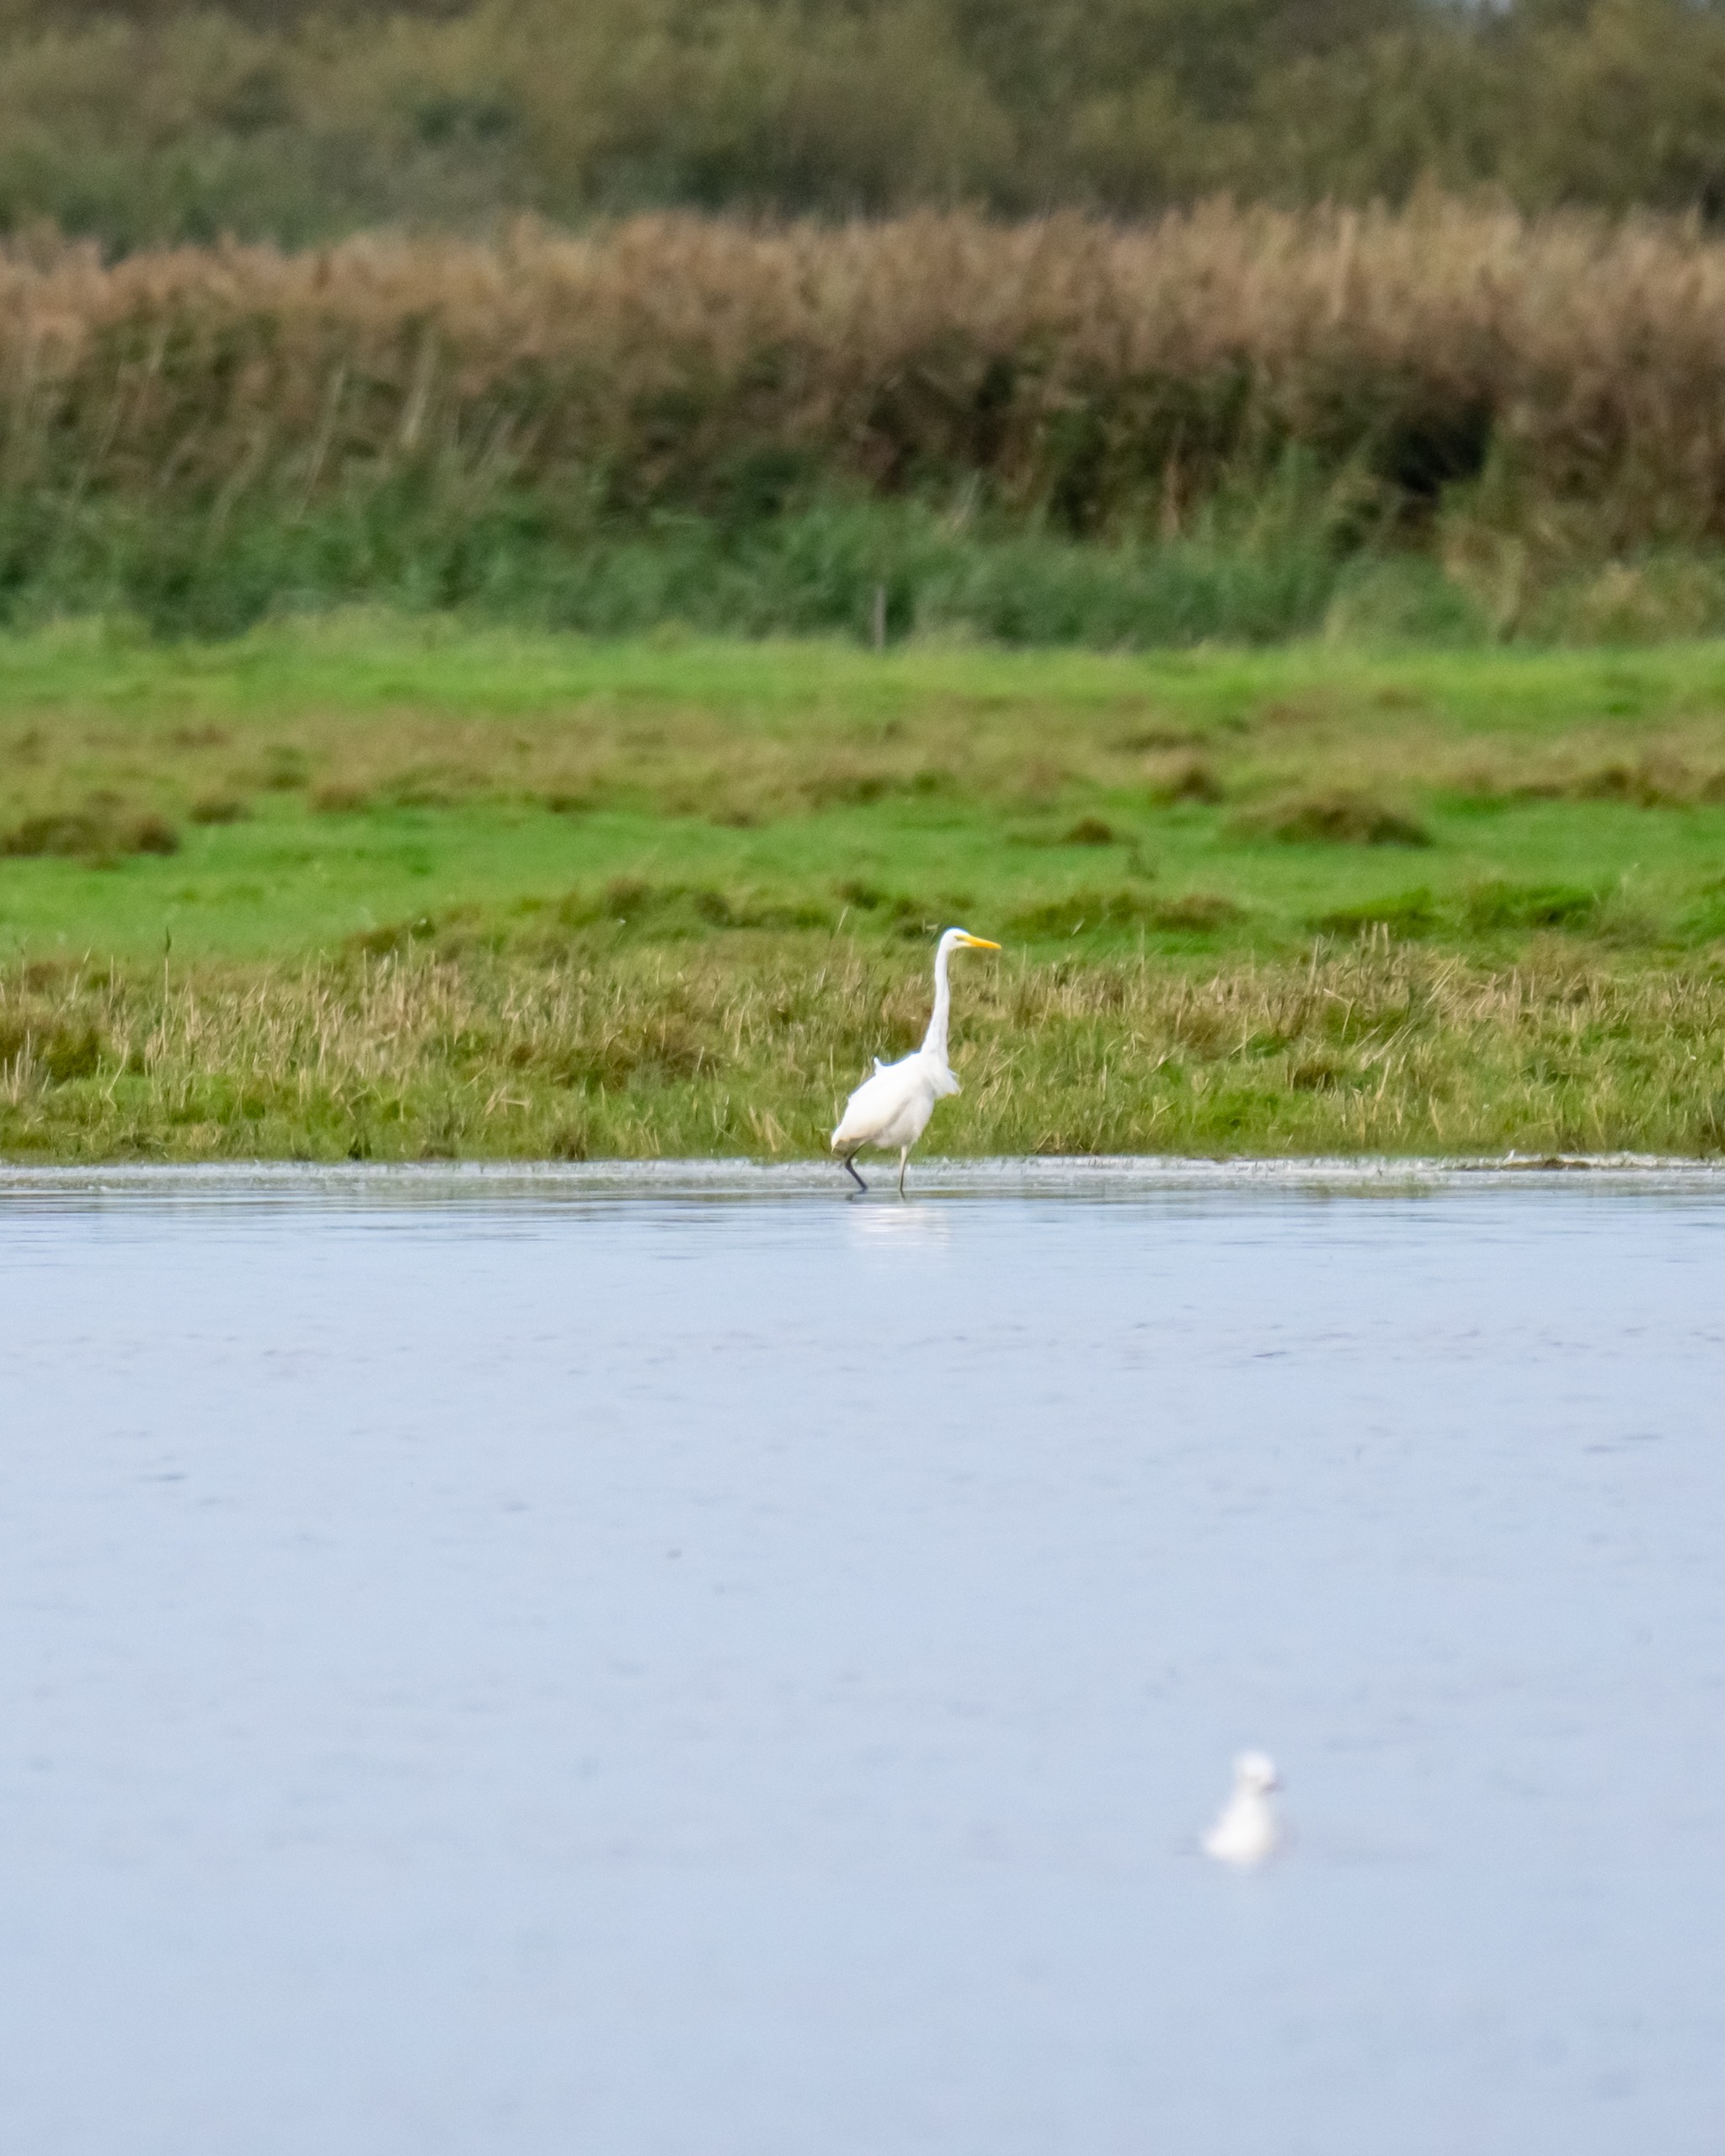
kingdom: Animalia
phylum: Chordata
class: Aves
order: Pelecaniformes
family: Ardeidae
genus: Ardea
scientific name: Ardea alba
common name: Sølvhejre
